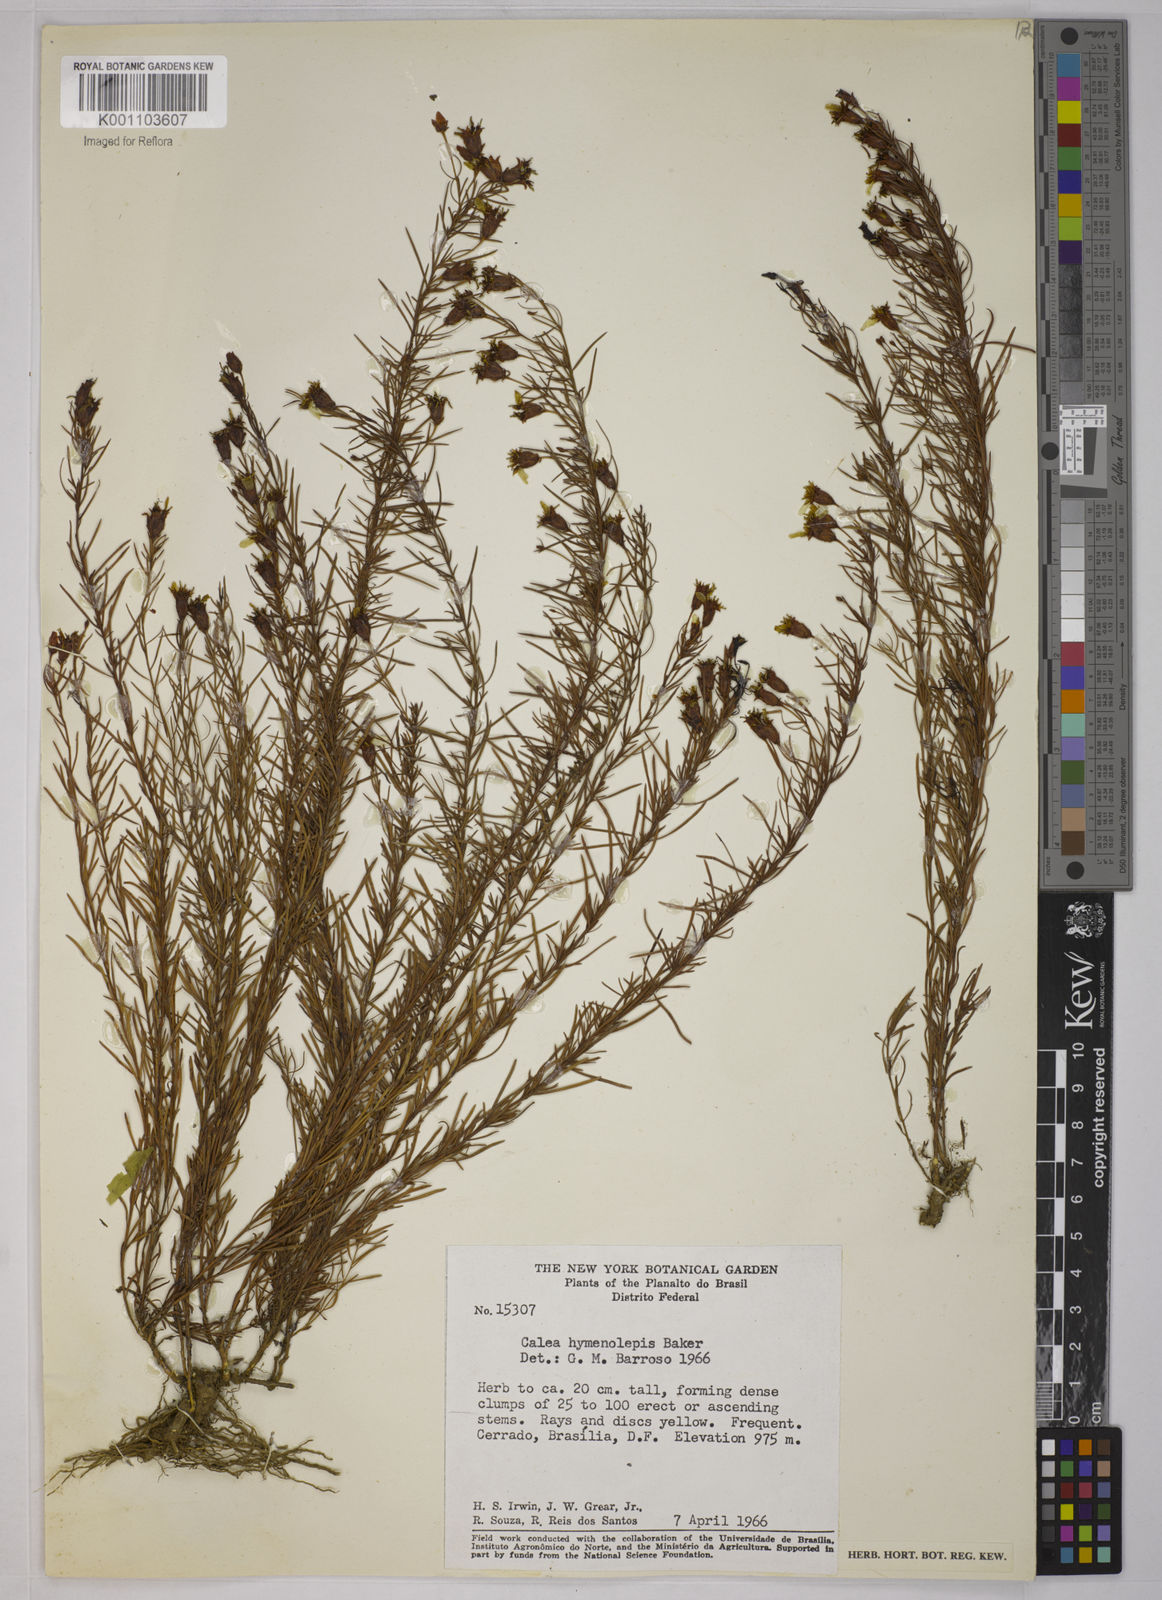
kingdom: Plantae
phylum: Tracheophyta
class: Magnoliopsida
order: Asterales
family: Asteraceae
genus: Calea
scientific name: Calea hymenolepis
